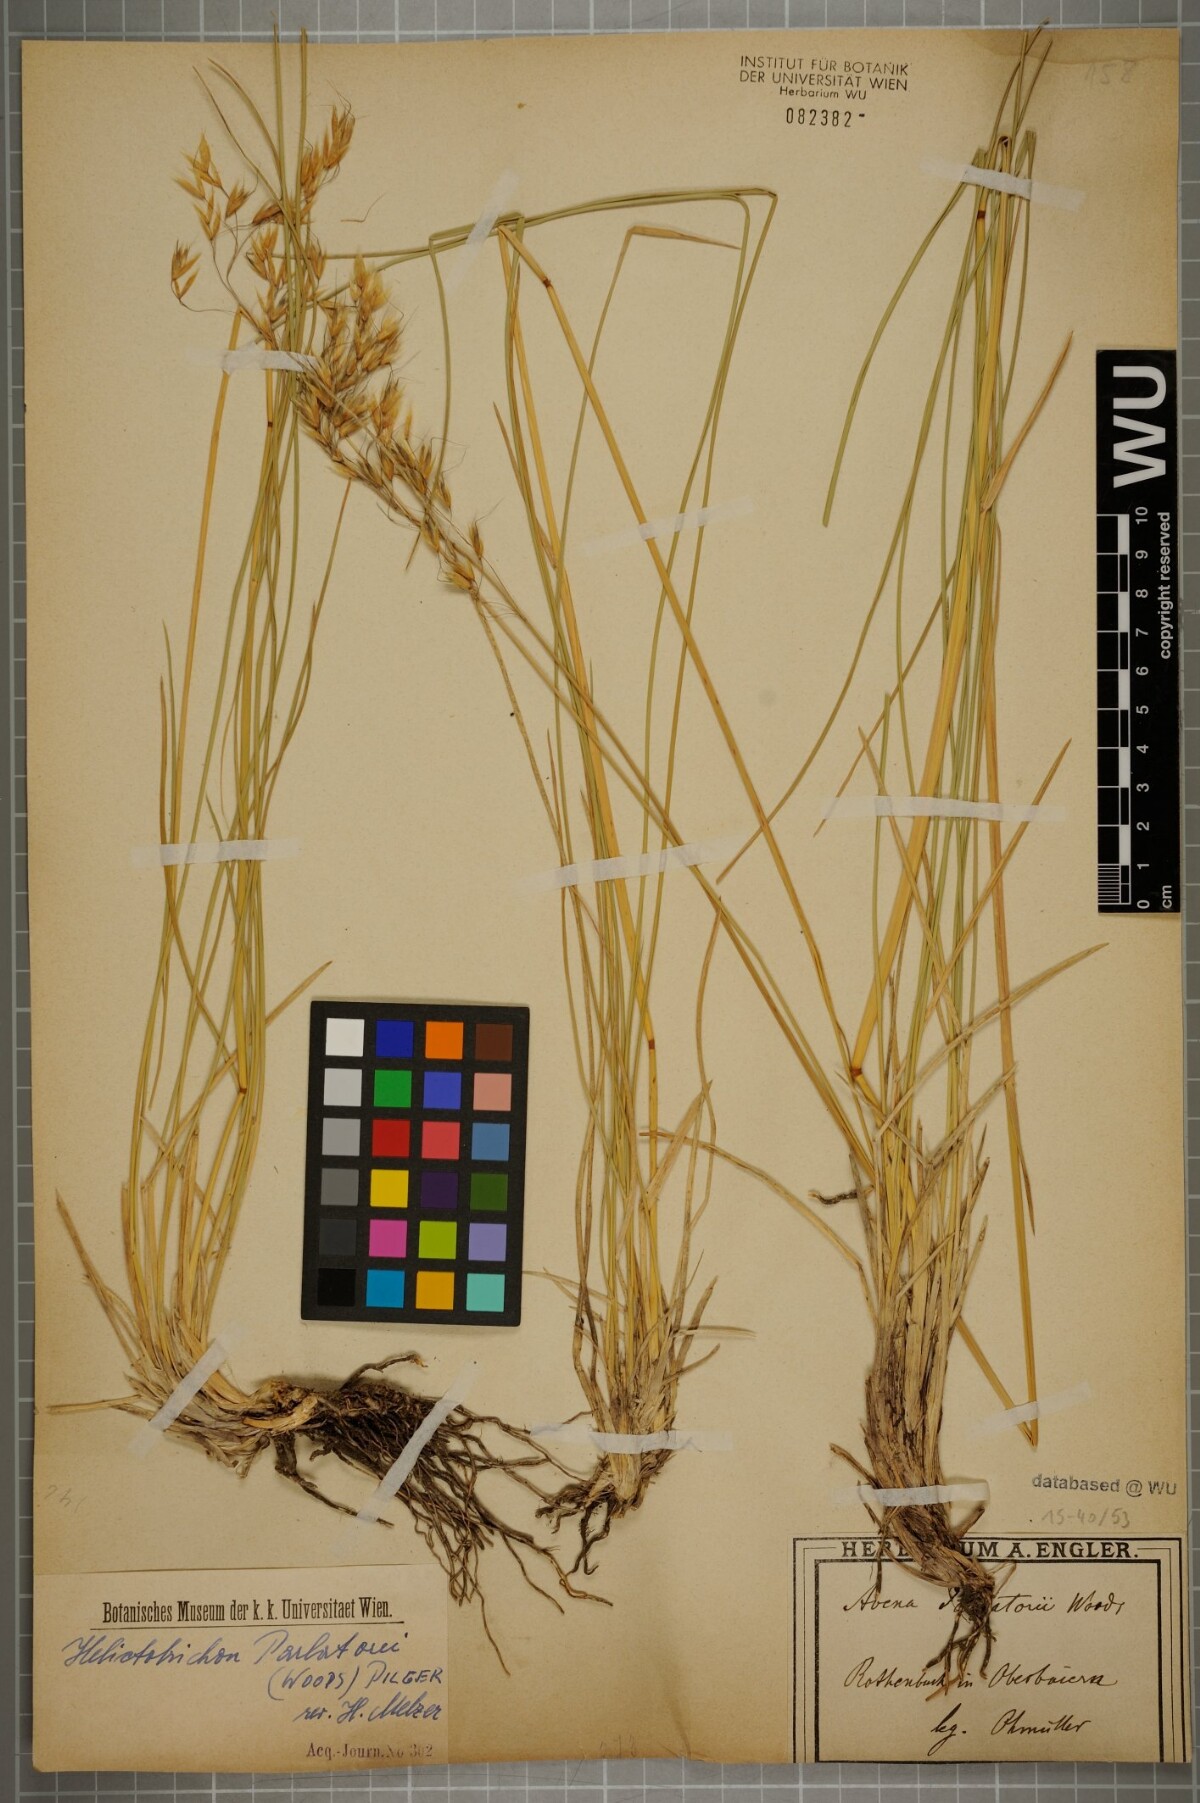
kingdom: Plantae
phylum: Tracheophyta
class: Liliopsida
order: Poales
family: Poaceae
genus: Helictotrichon
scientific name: Helictotrichon parlatorei
